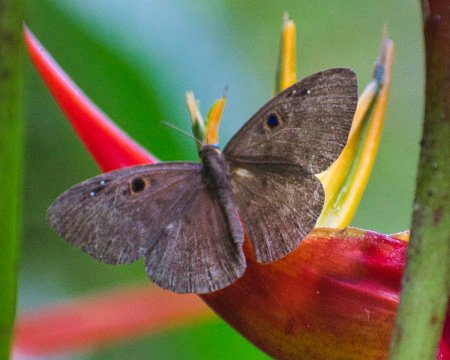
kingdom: Animalia
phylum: Cnidaria
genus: Eurybia
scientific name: Eurybia dardus
